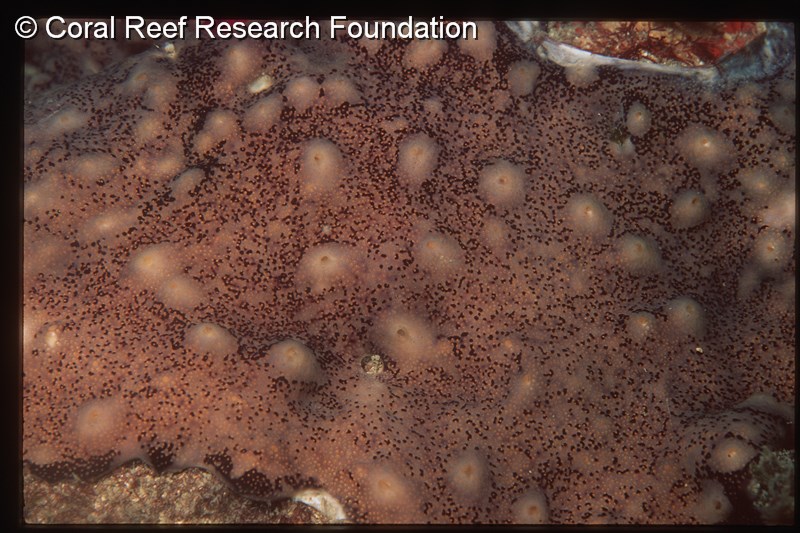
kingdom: Animalia
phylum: Chordata
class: Ascidiacea
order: Aplousobranchia
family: Didemnidae
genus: Didemnum
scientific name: Didemnum
